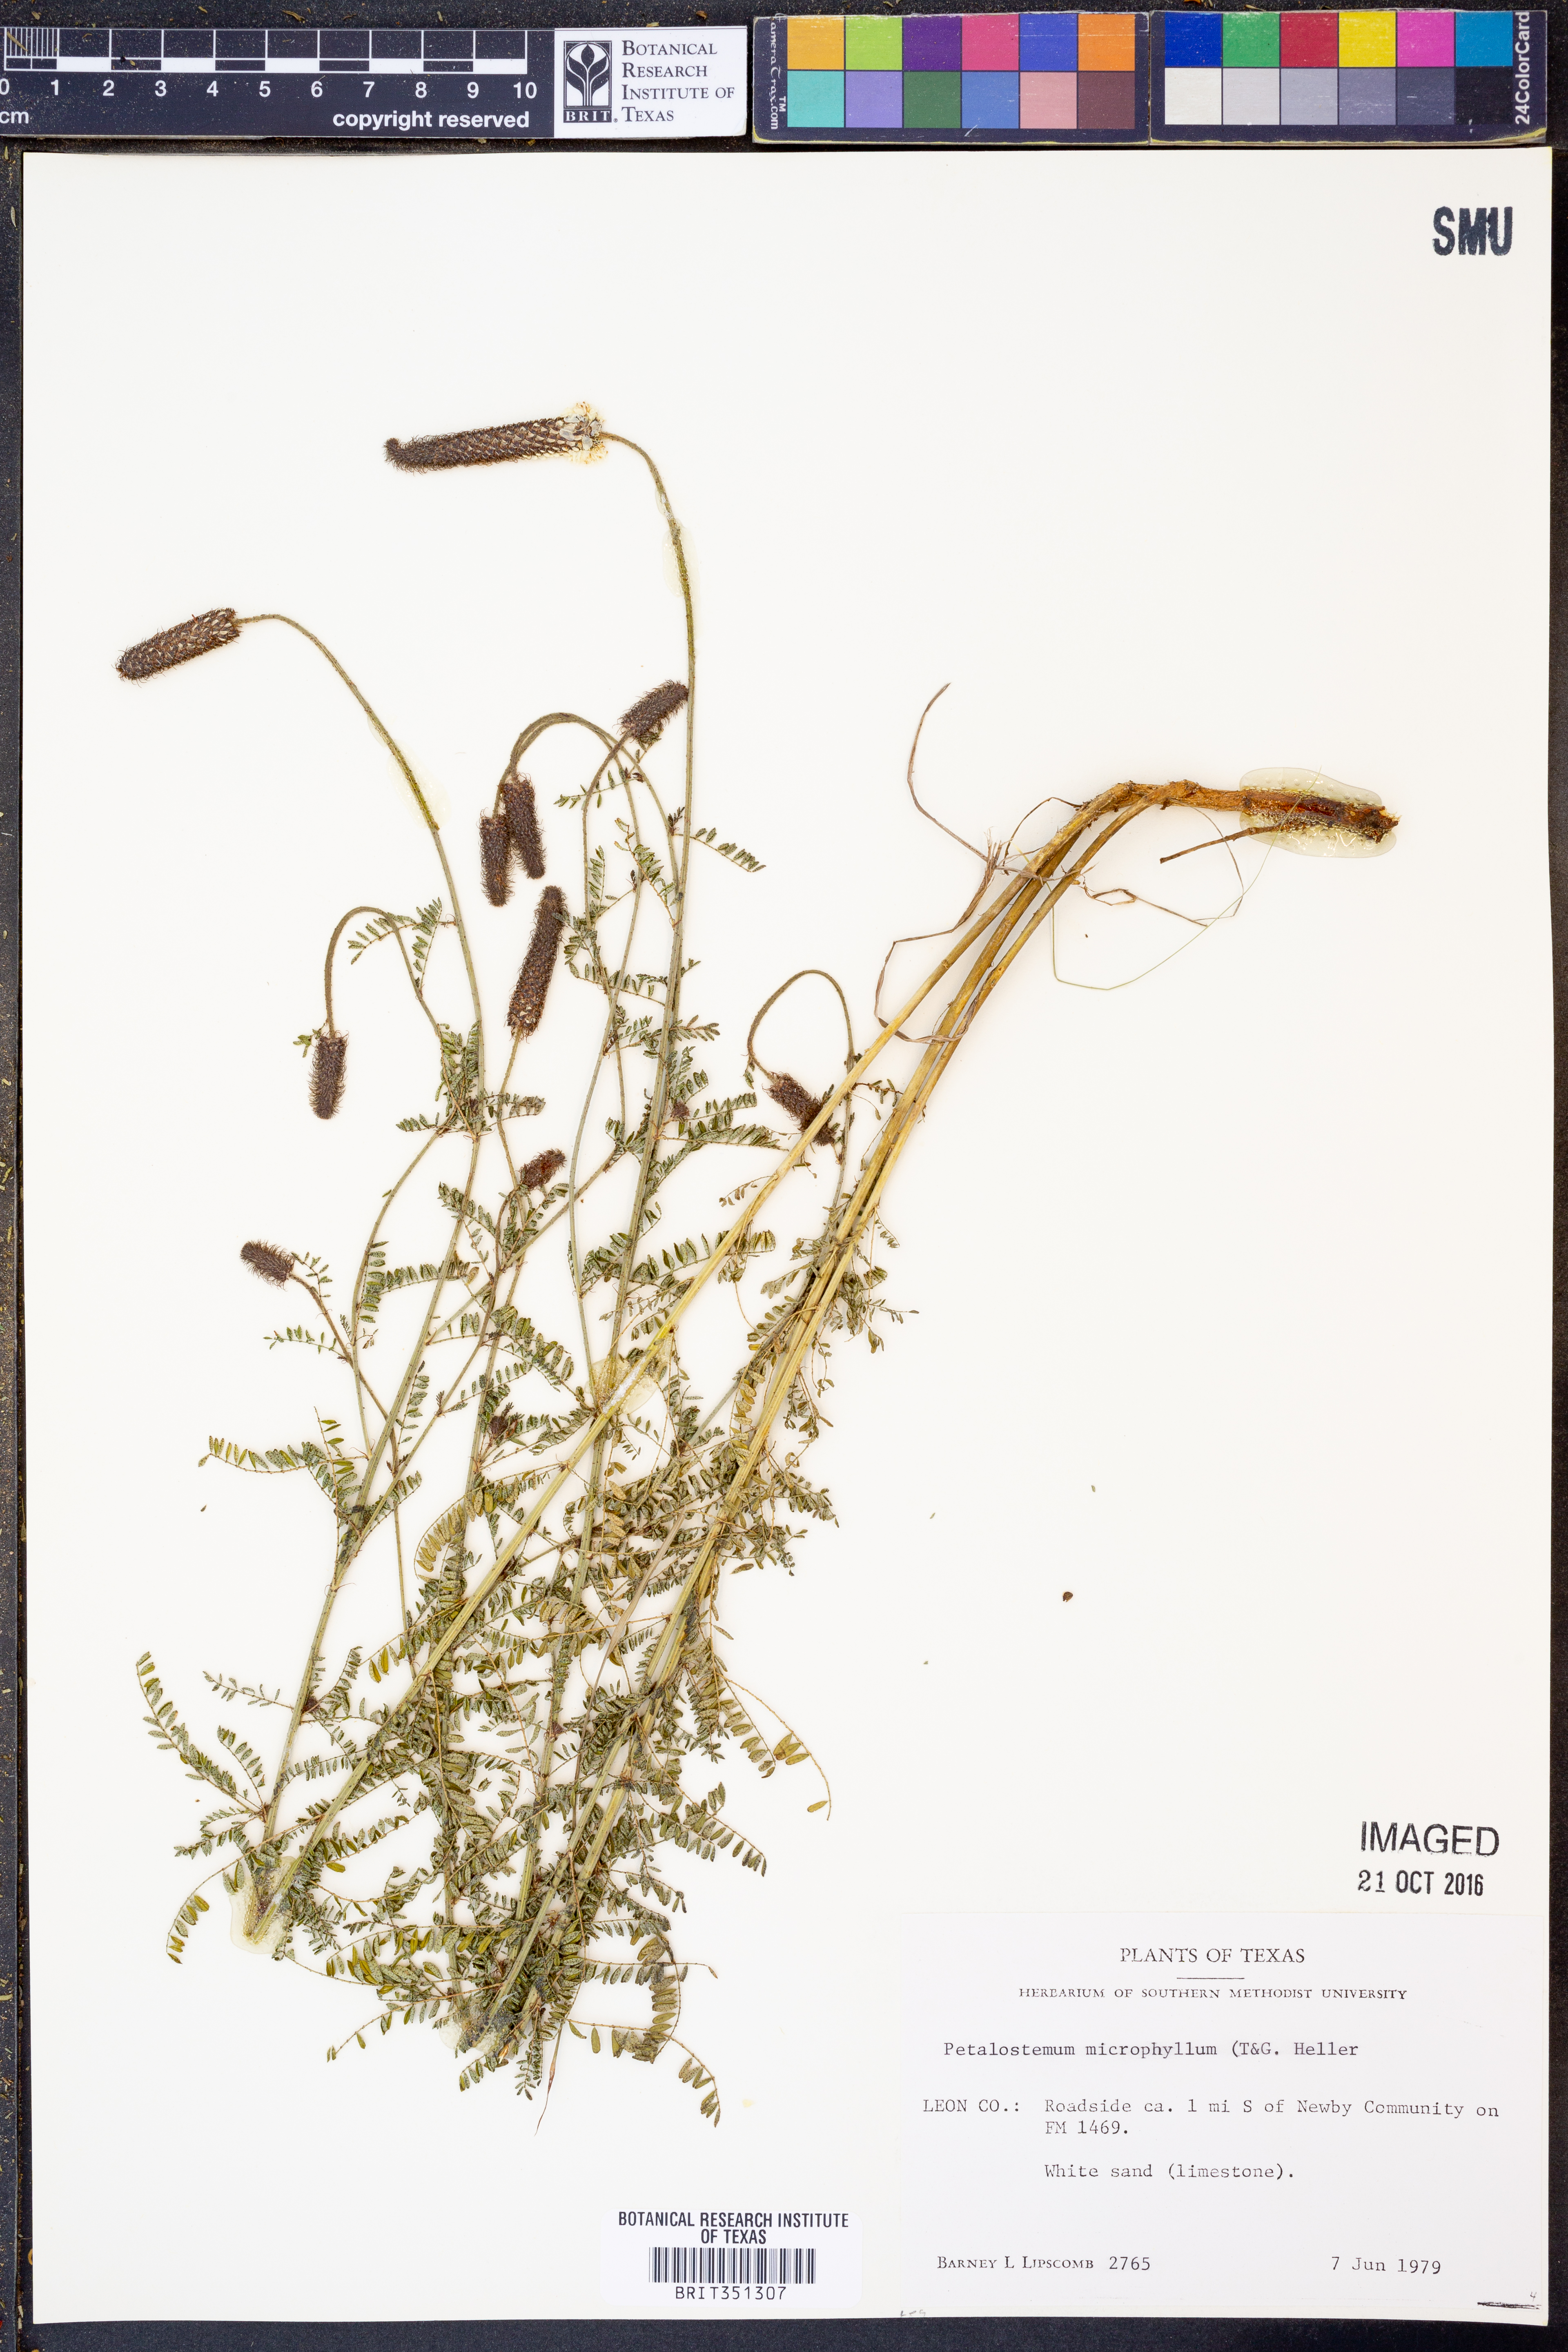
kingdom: Plantae
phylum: Tracheophyta
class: Magnoliopsida
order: Fabales
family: Fabaceae
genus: Dalea
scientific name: Dalea drummondiana
